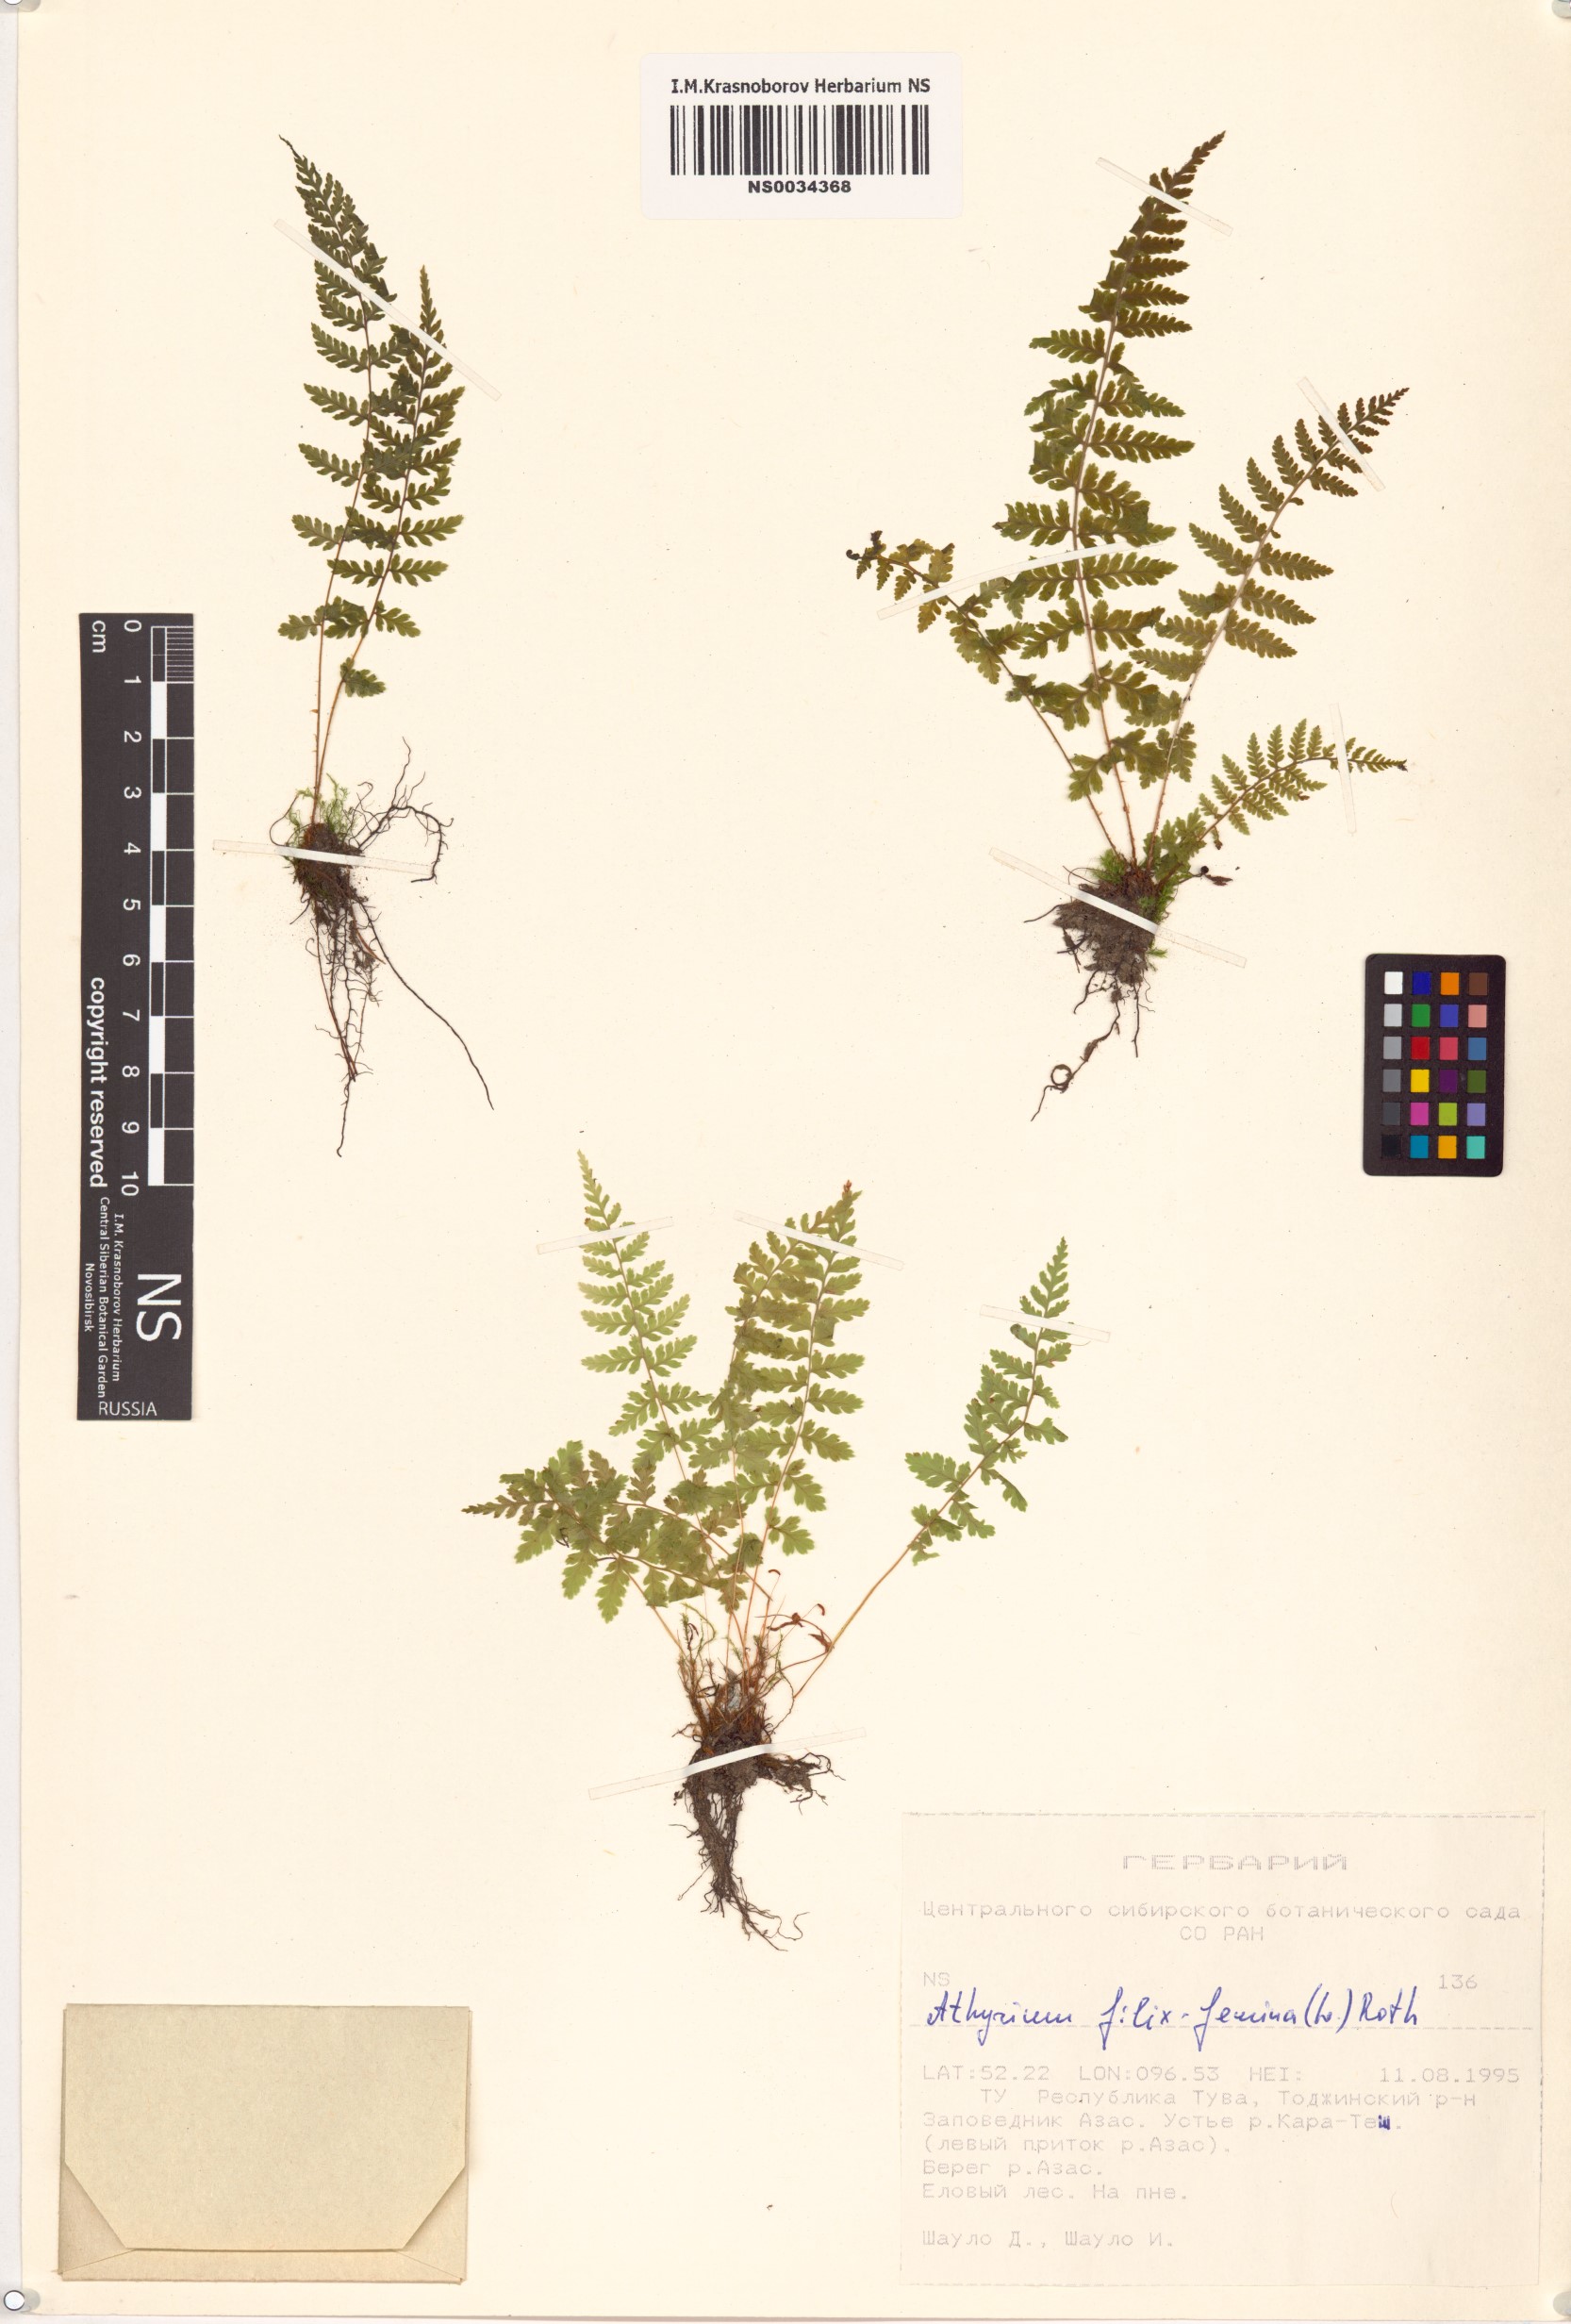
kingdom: Plantae
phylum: Tracheophyta
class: Polypodiopsida
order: Polypodiales
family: Athyriaceae
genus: Athyrium
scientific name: Athyrium filix-femina
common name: Lady fern
